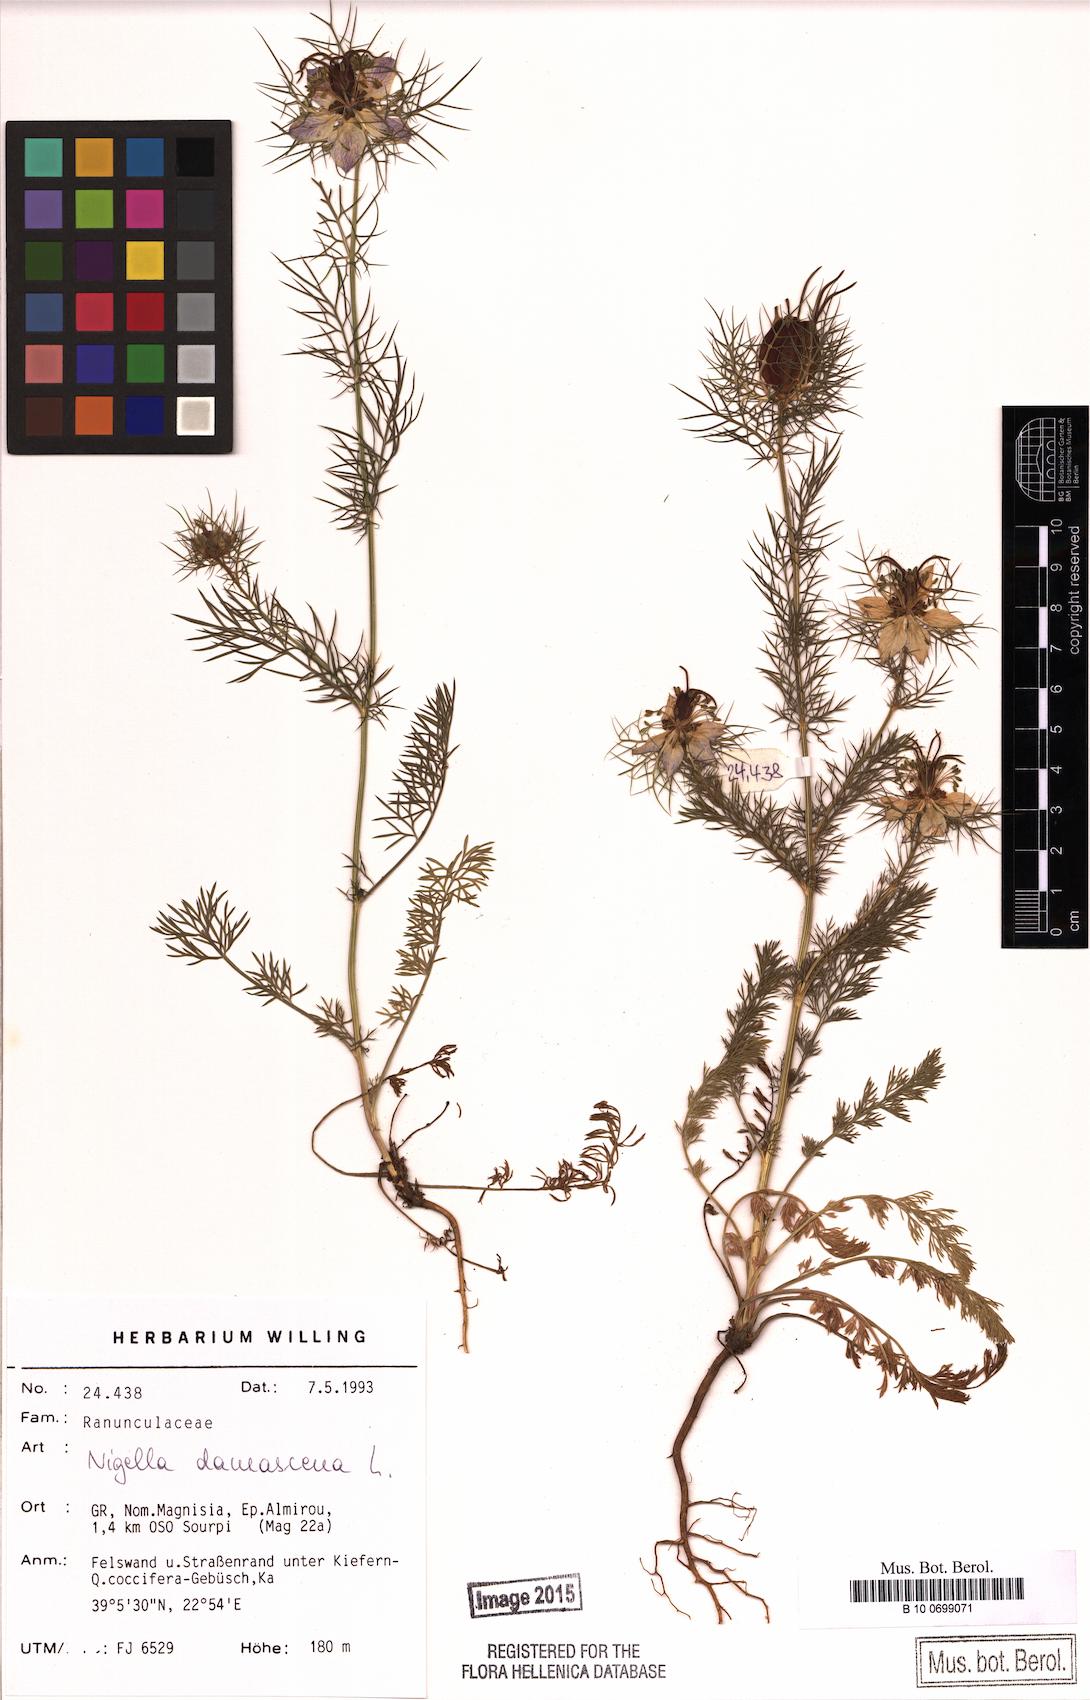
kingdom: Plantae
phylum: Tracheophyta
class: Magnoliopsida
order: Ranunculales
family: Ranunculaceae
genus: Nigella
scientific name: Nigella damascena
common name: Love-in-a-mist
